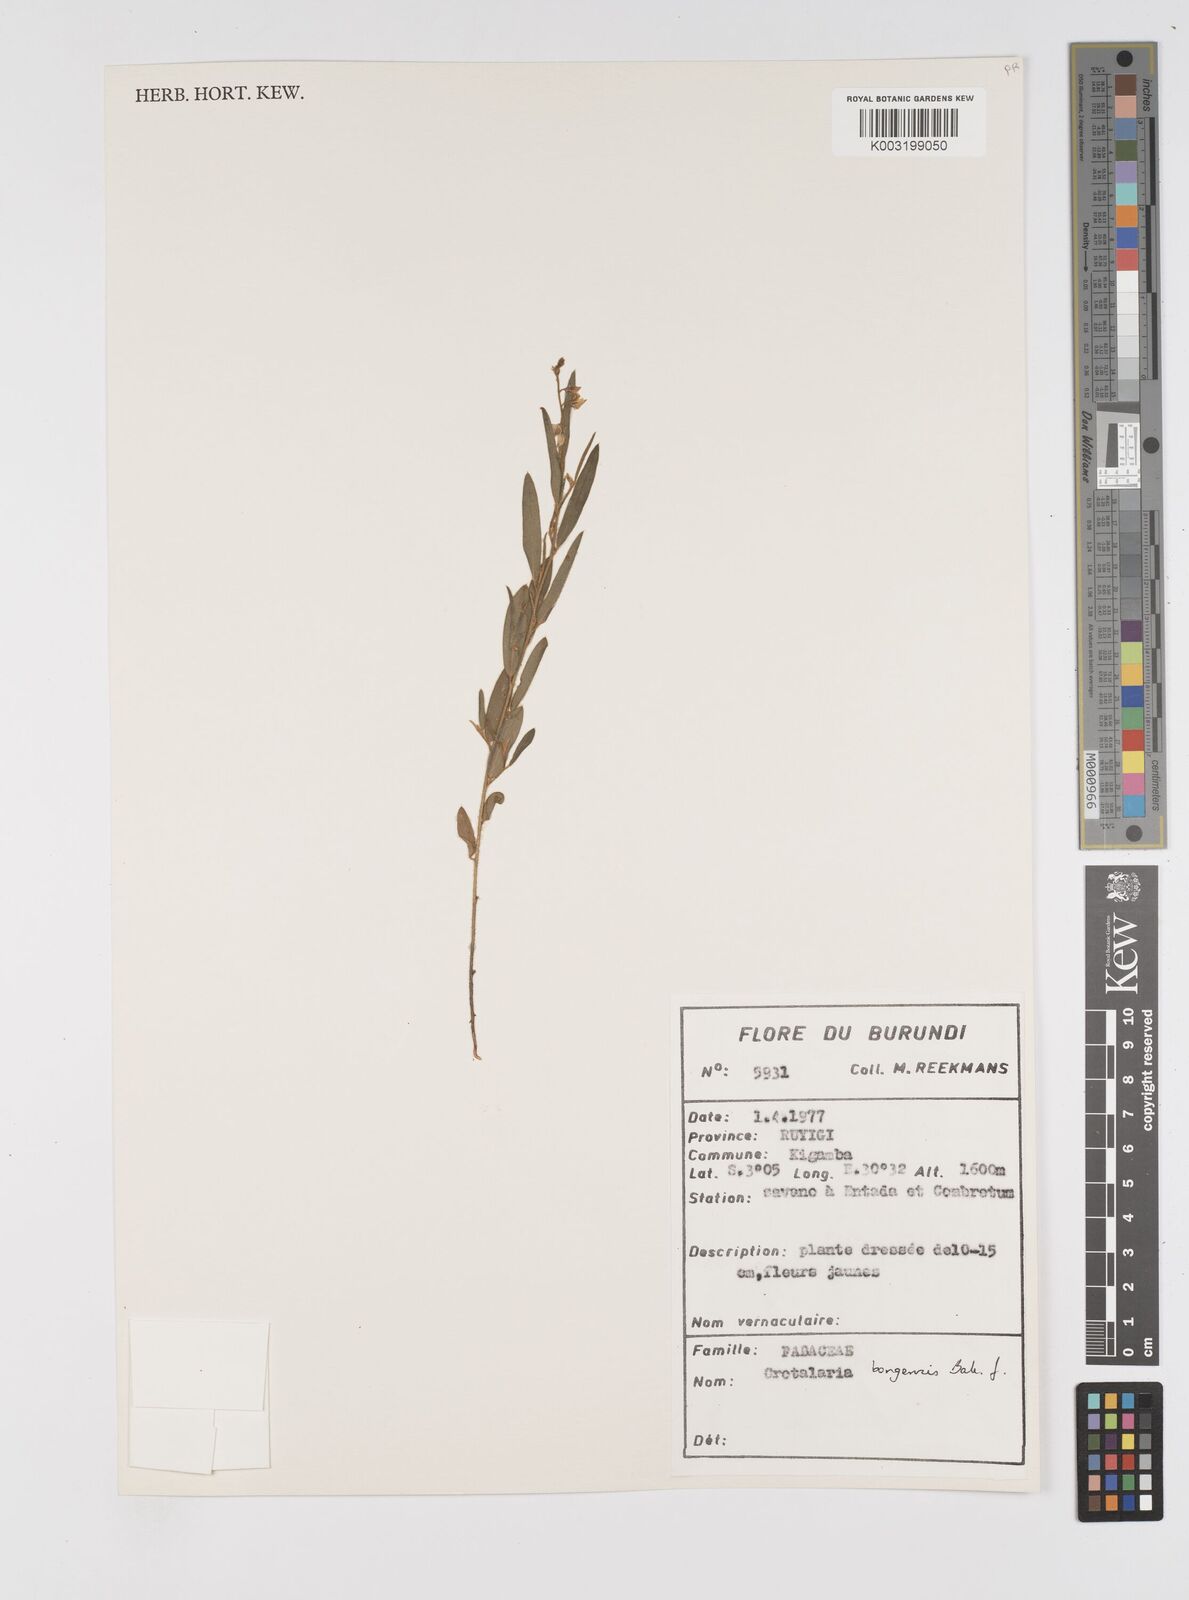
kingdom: Plantae
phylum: Tracheophyta
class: Magnoliopsida
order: Fabales
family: Fabaceae
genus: Crotalaria
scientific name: Crotalaria bongensis
